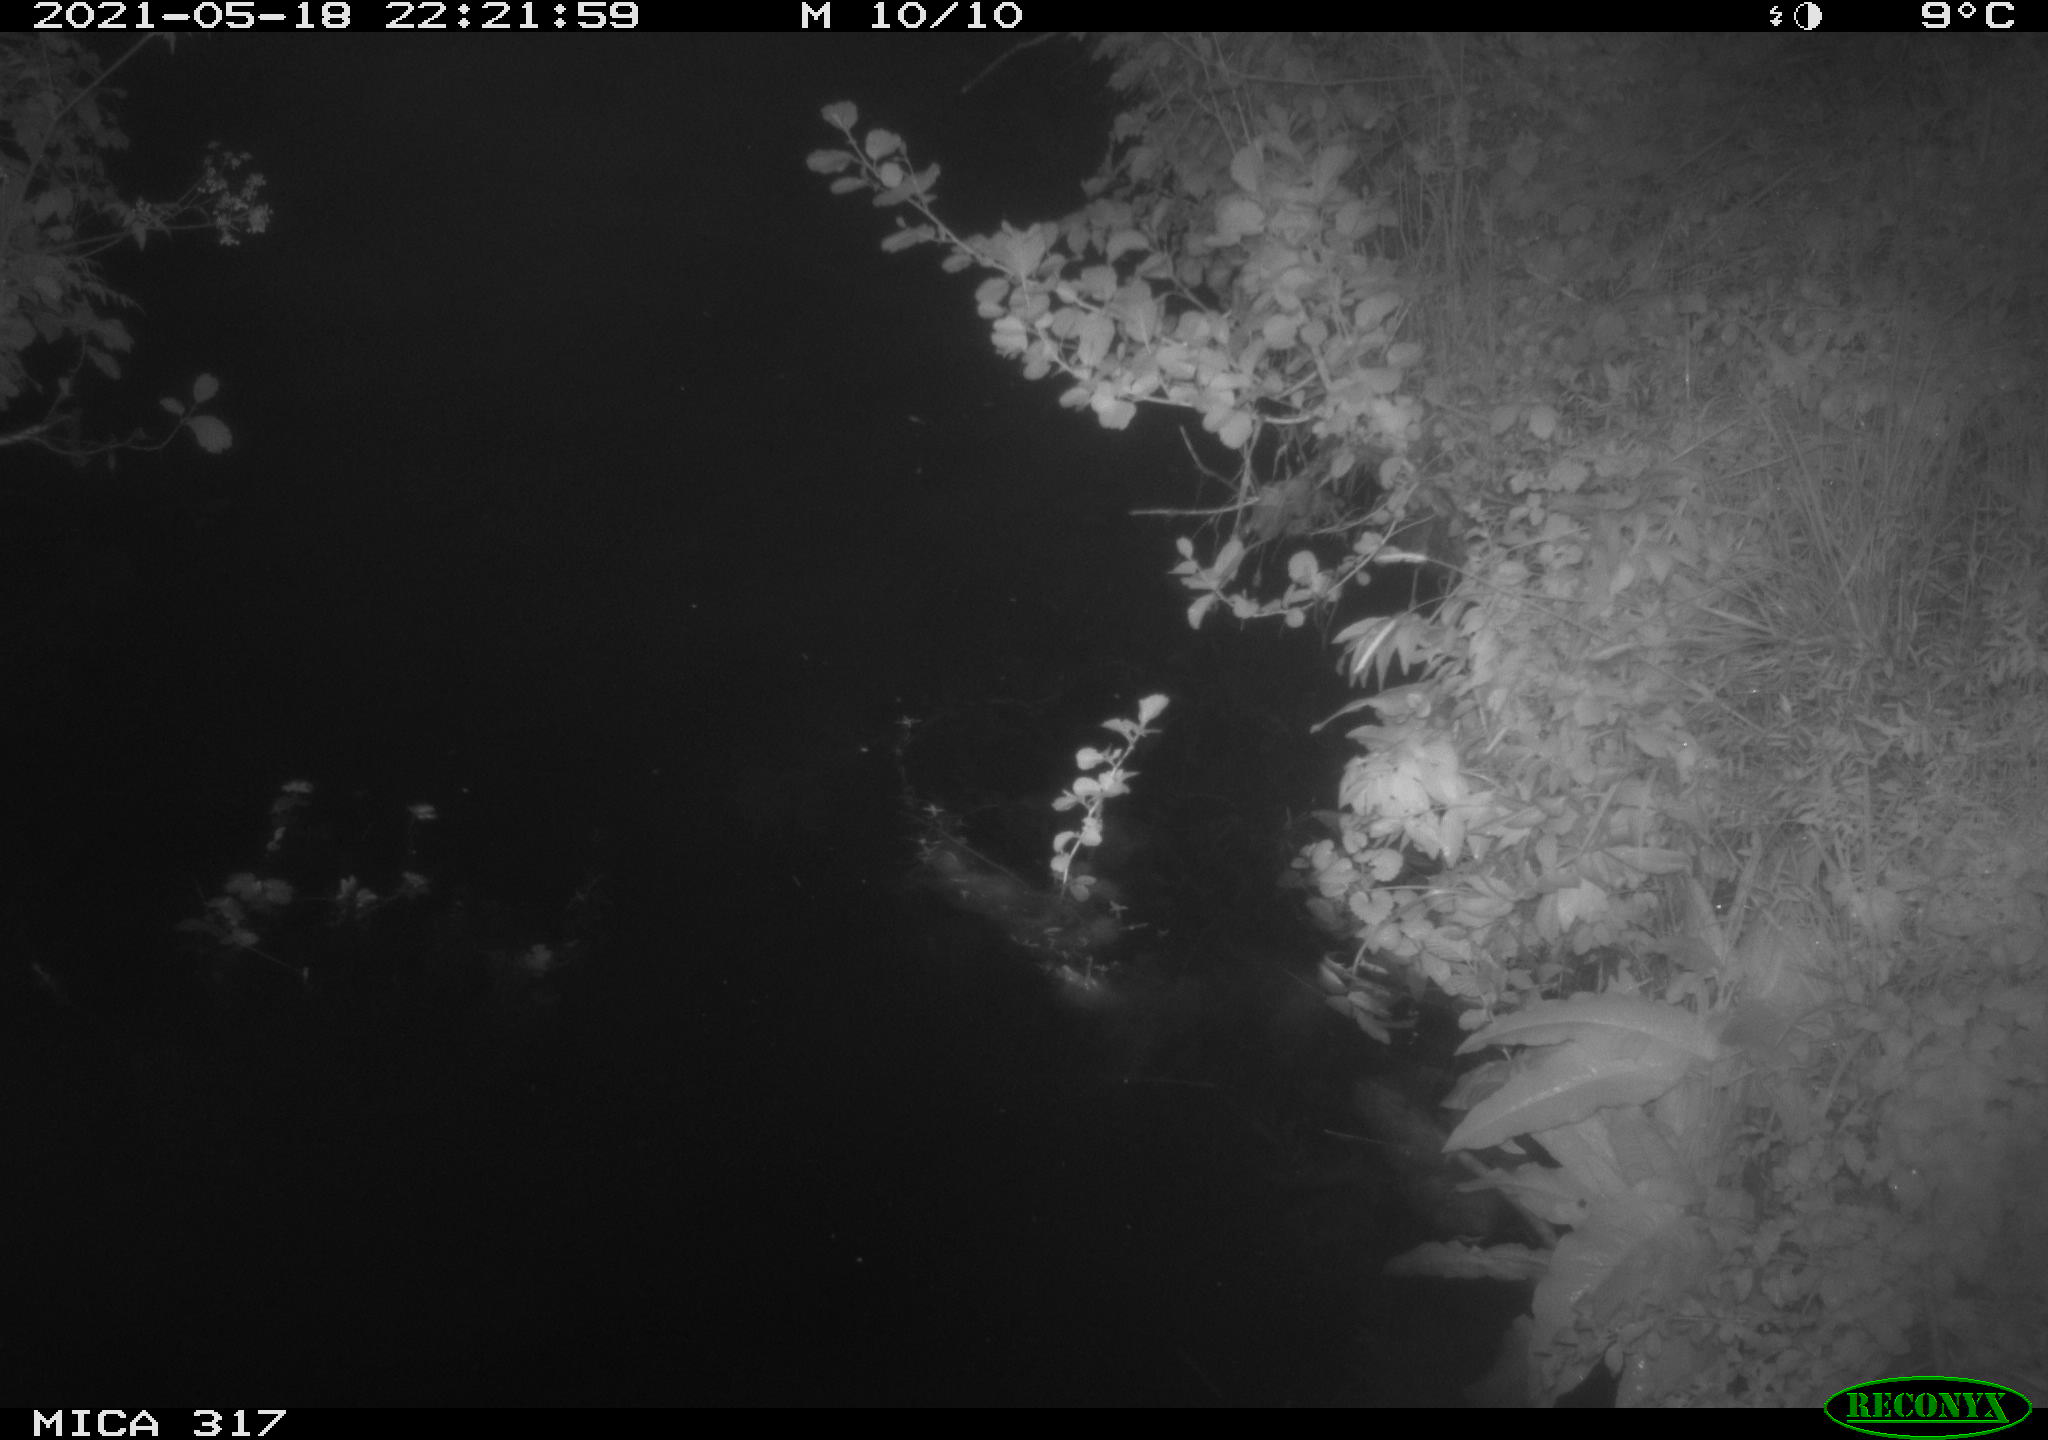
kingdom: Animalia
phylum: Chordata
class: Aves
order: Anseriformes
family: Anatidae
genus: Anas
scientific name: Anas
